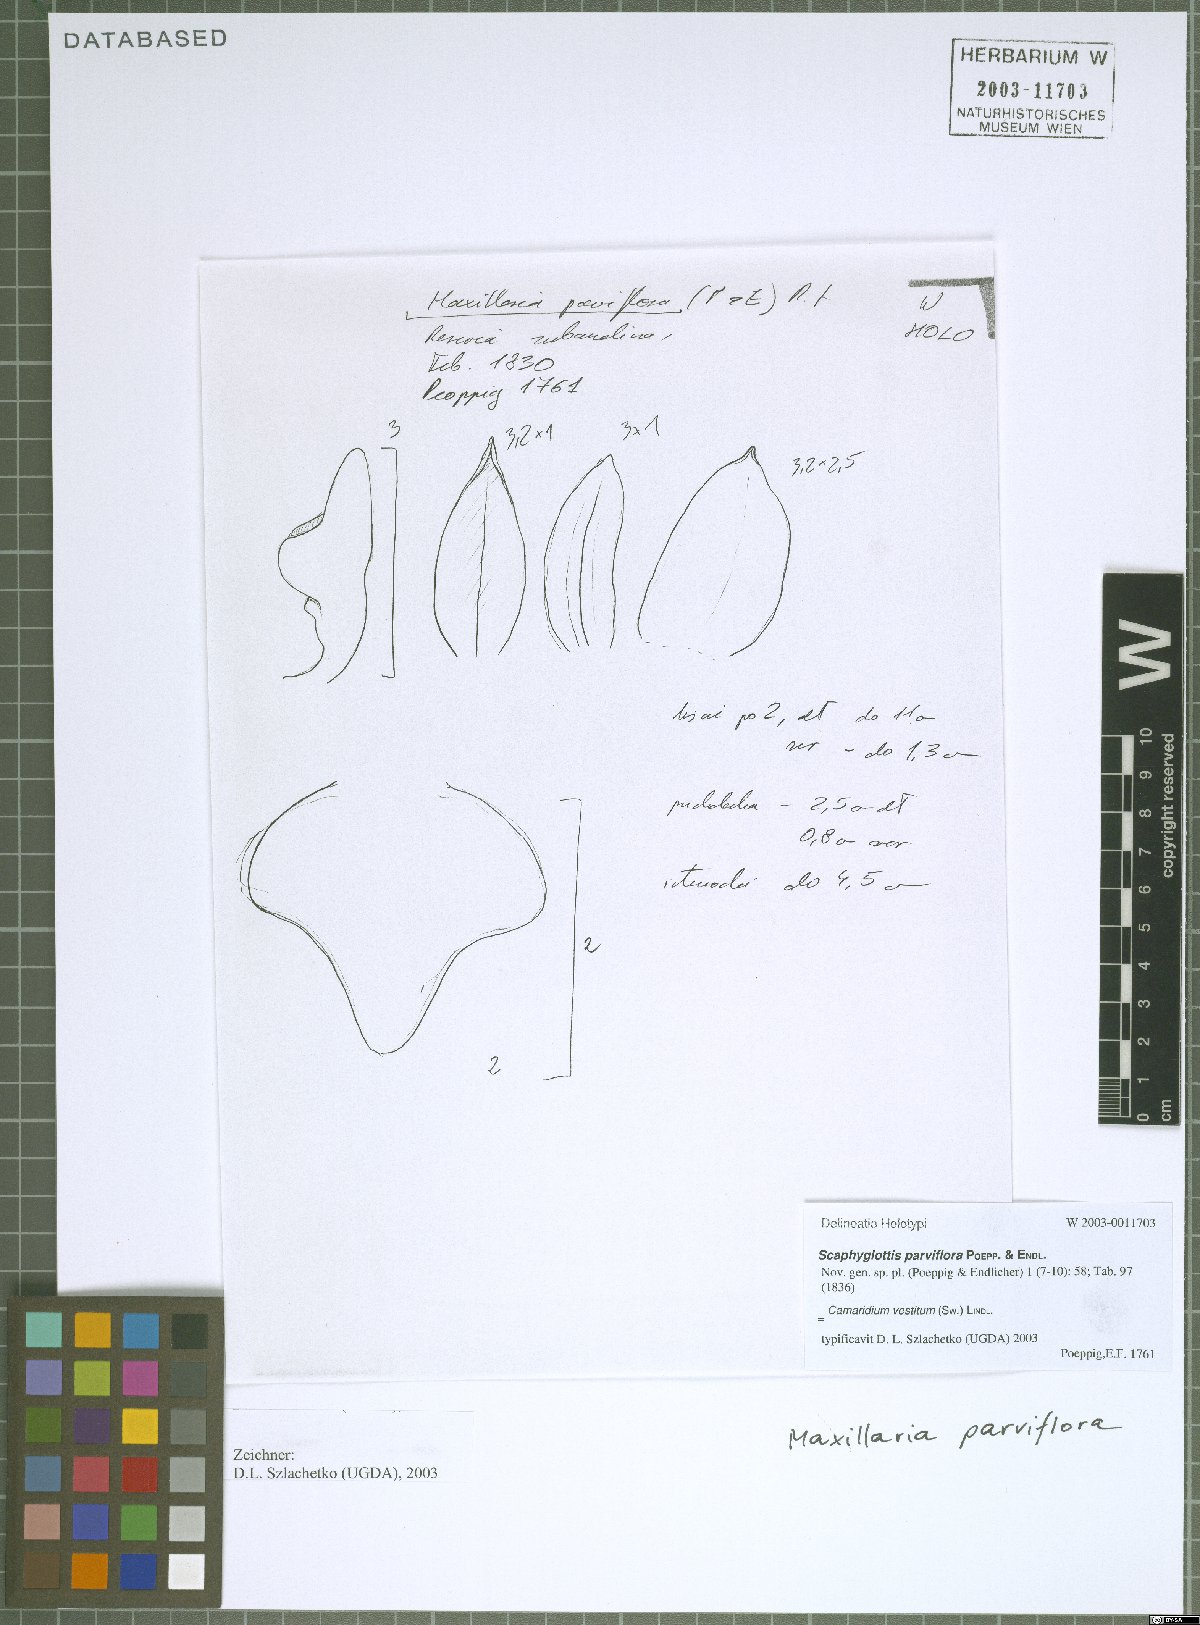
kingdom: Plantae
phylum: Tracheophyta
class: Liliopsida
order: Asparagales
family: Orchidaceae
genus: Maxillaria
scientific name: Maxillaria parviflora
